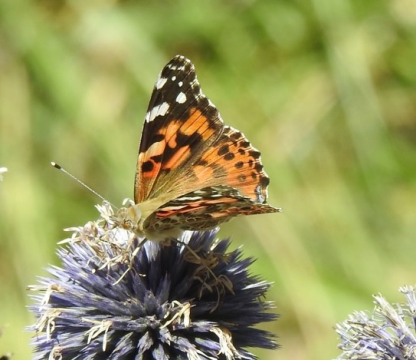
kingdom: Animalia
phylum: Arthropoda
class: Insecta
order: Lepidoptera
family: Nymphalidae
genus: Vanessa
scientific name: Vanessa cardui
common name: Painted Lady
